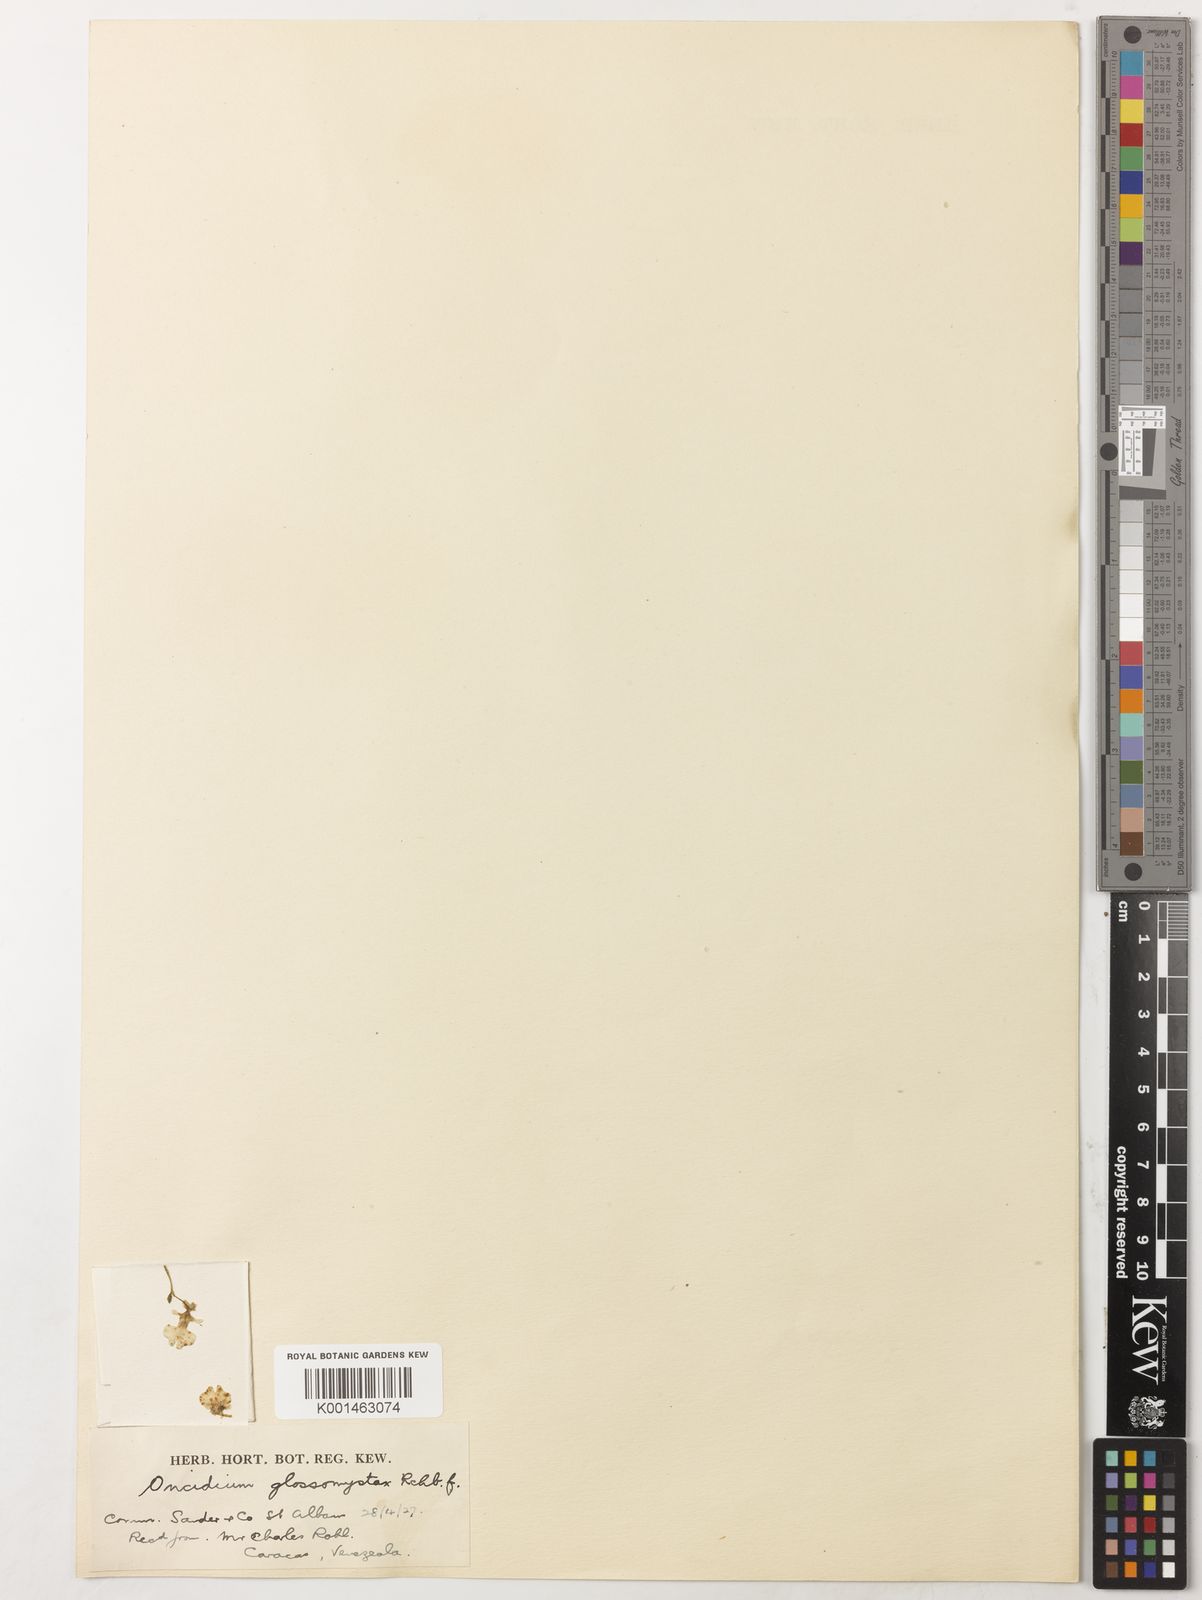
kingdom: Plantae
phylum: Tracheophyta
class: Liliopsida
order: Asparagales
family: Orchidaceae
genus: Erycina
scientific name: Erycina glossomystax
